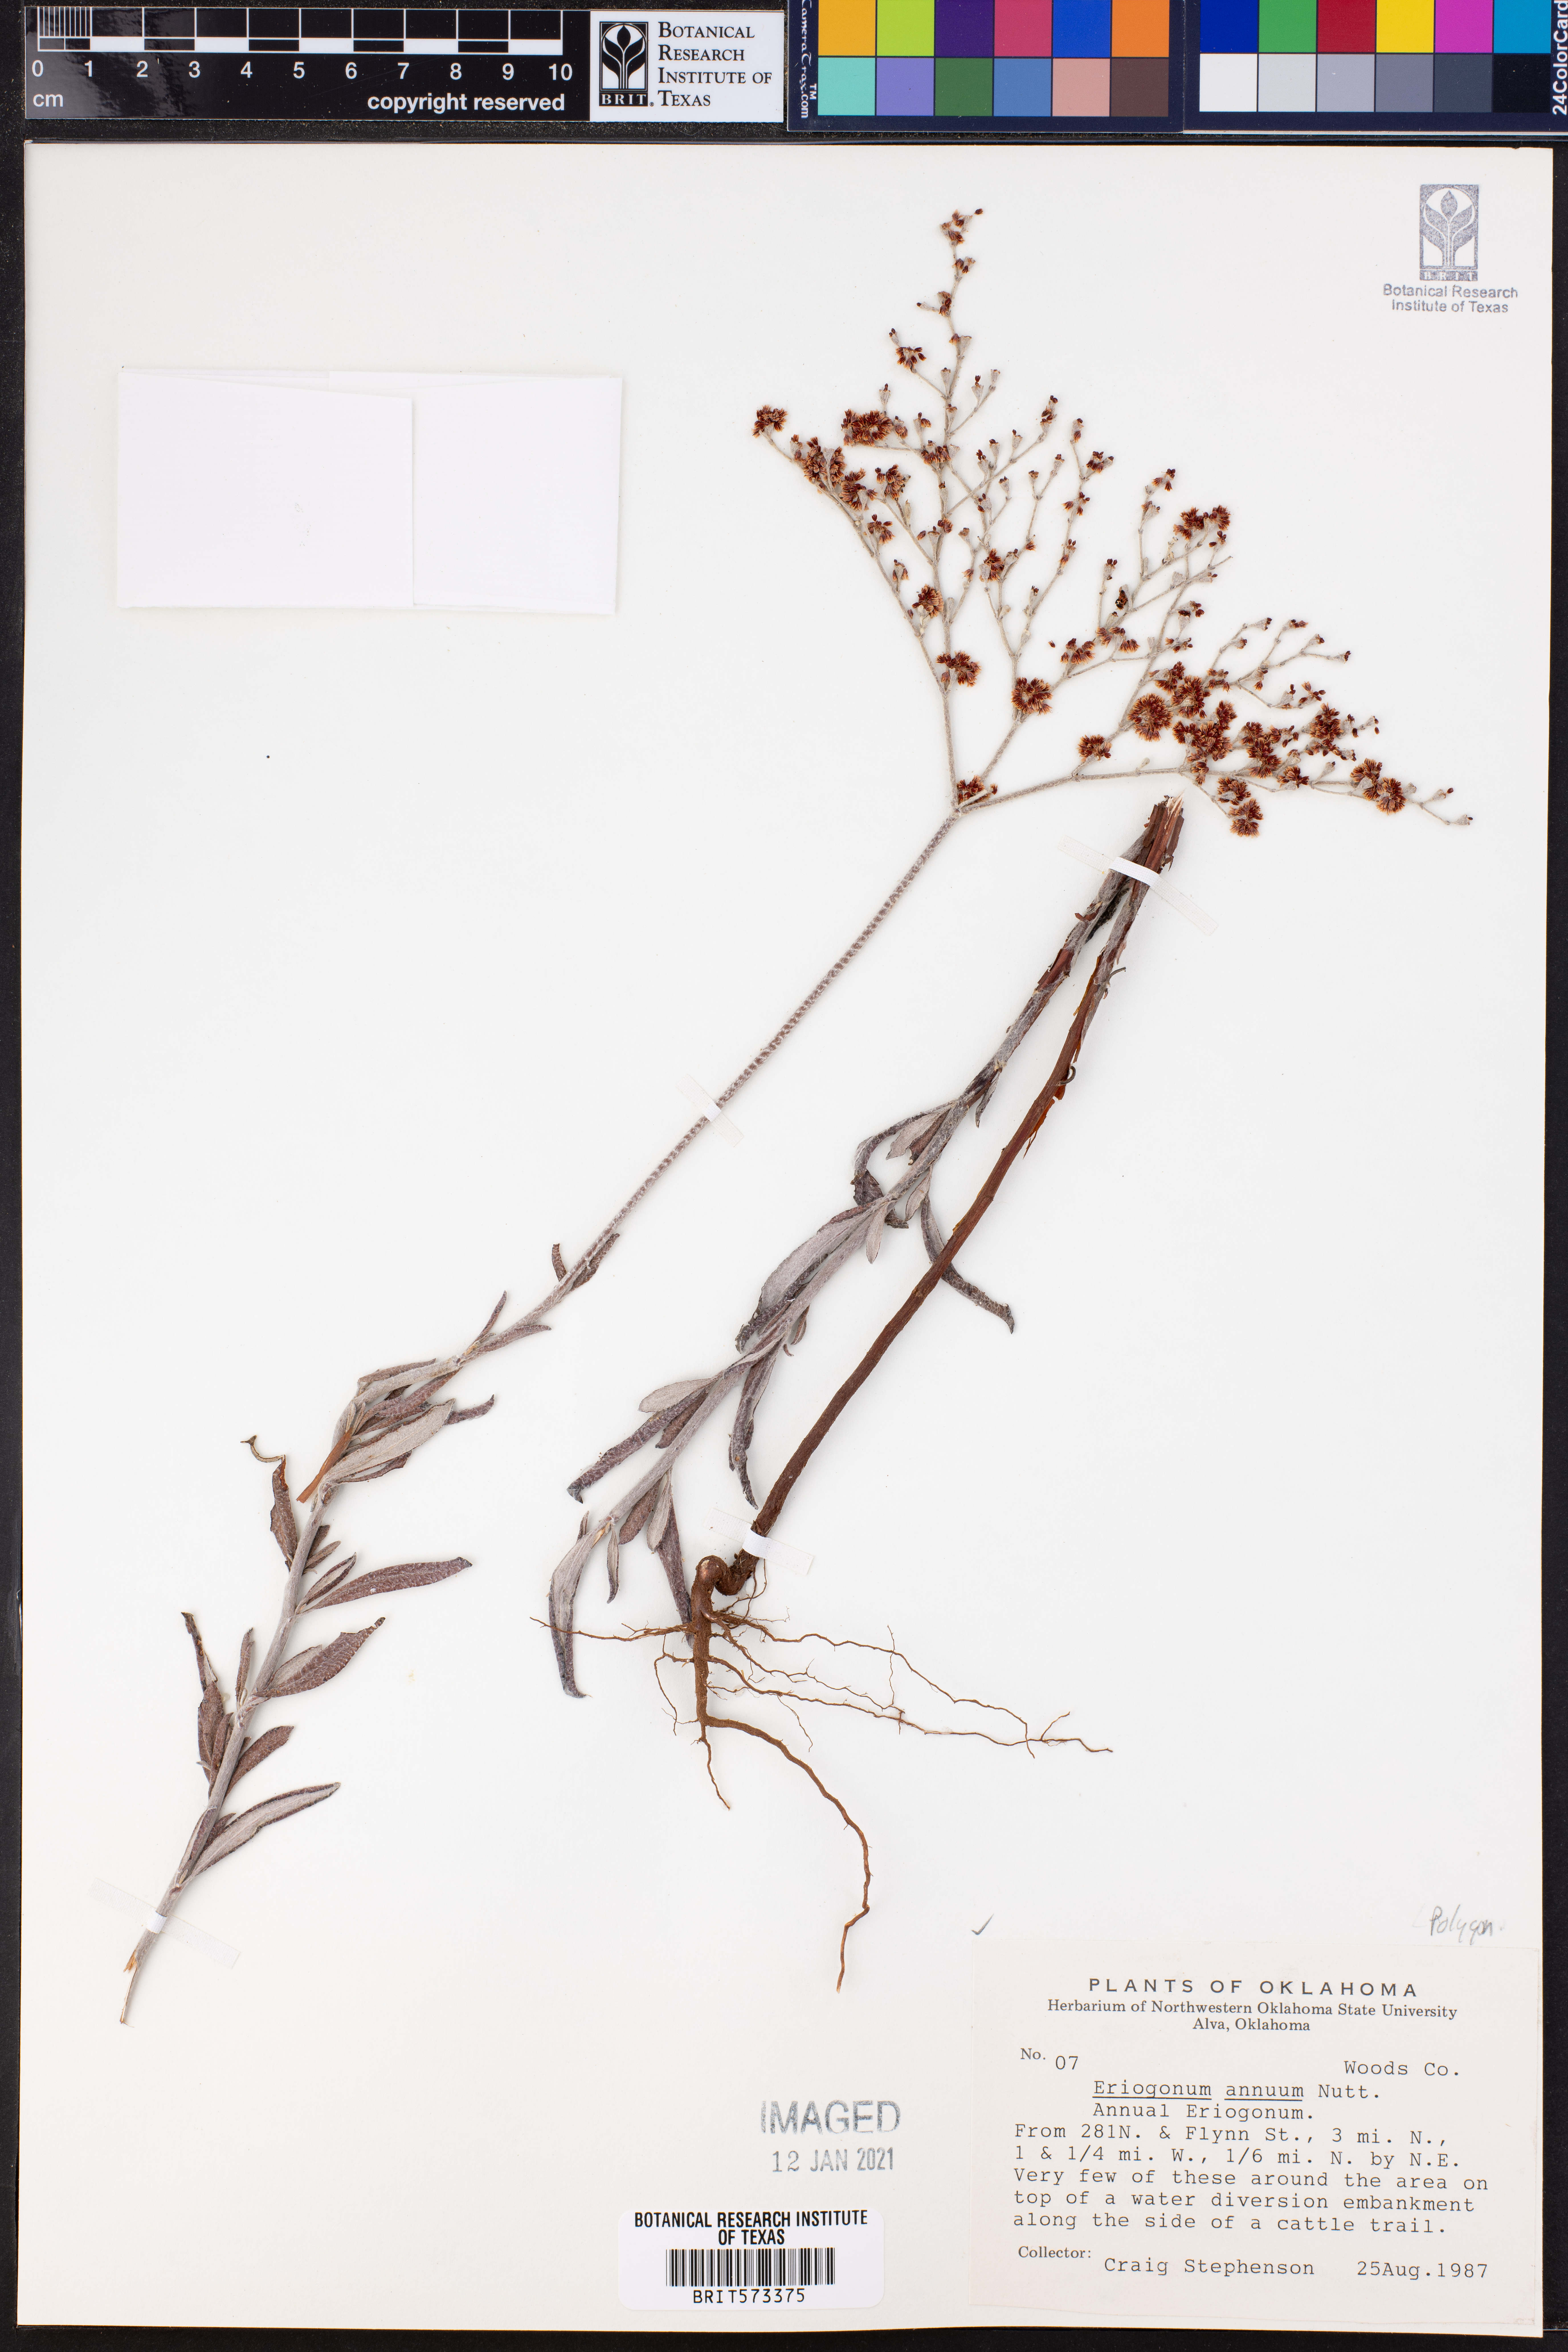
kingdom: Plantae
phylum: Tracheophyta
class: Magnoliopsida
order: Caryophyllales
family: Polygonaceae
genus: Eriogonum
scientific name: Eriogonum annuum
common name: Annual wild buckwheat
